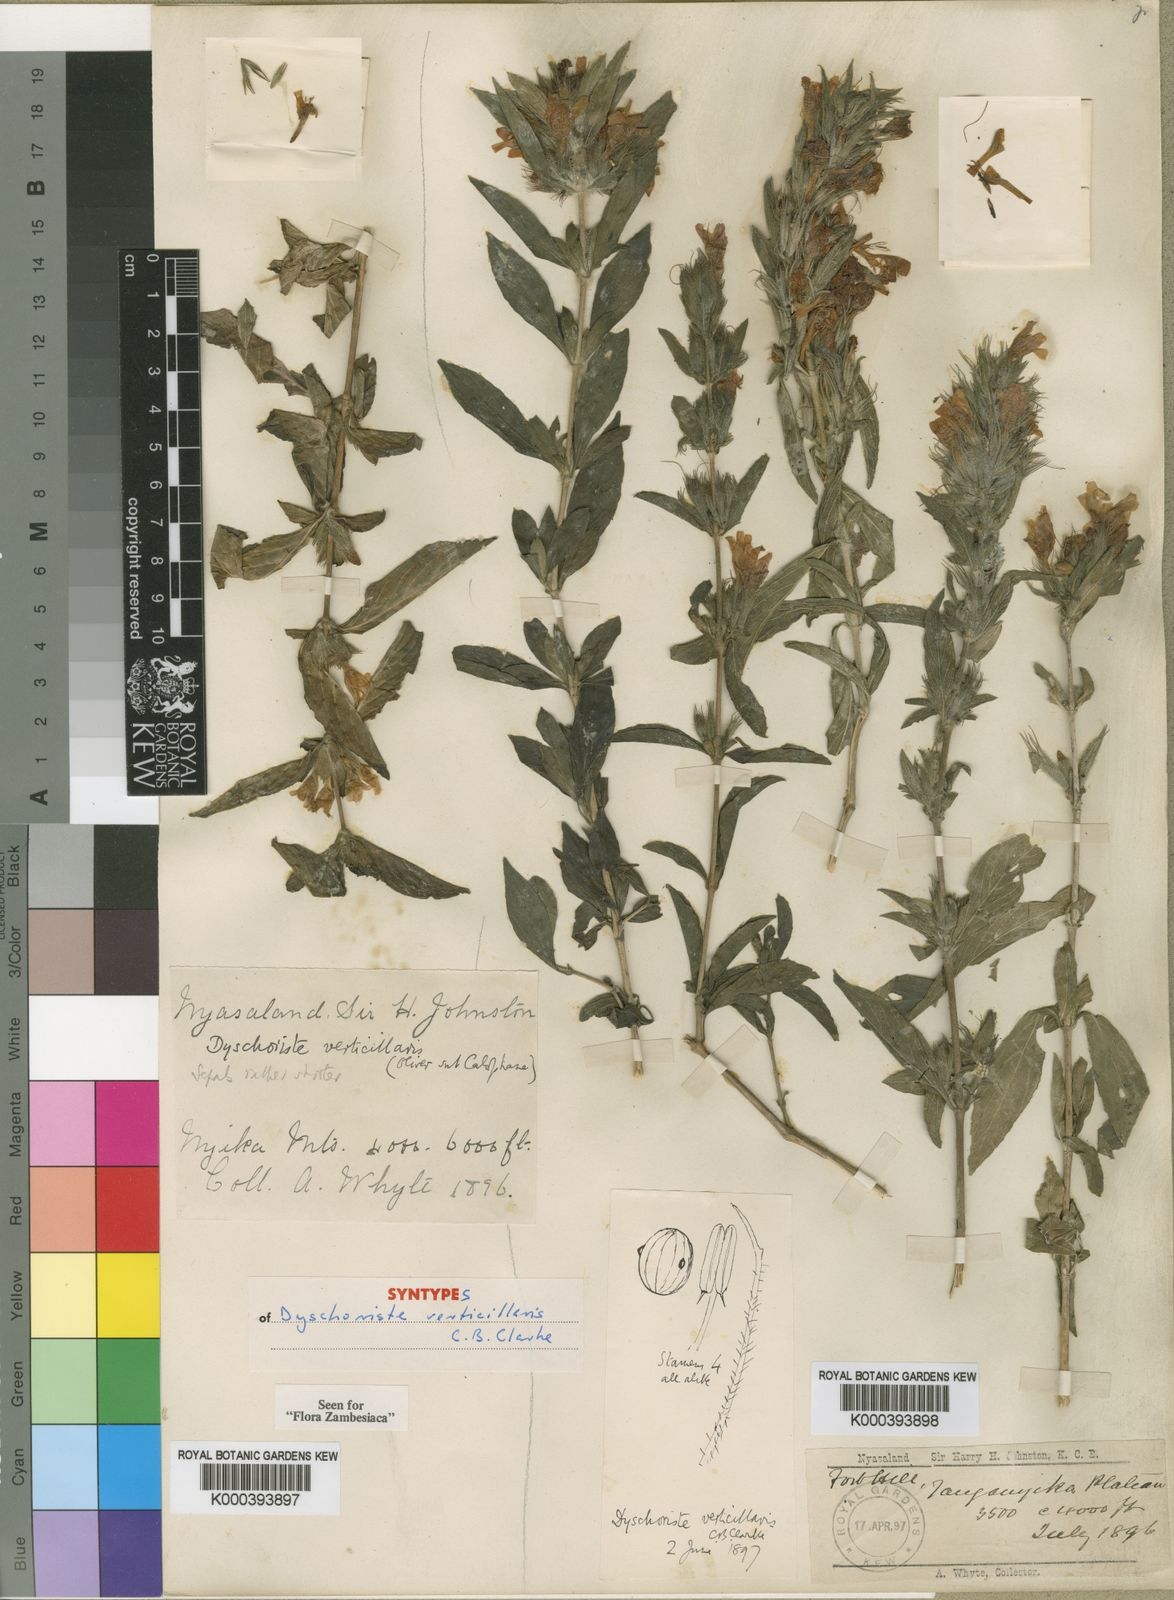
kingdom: Plantae
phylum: Tracheophyta
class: Magnoliopsida
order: Lamiales
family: Acanthaceae
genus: Dyschoriste
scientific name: Dyschoriste trichocalyx
